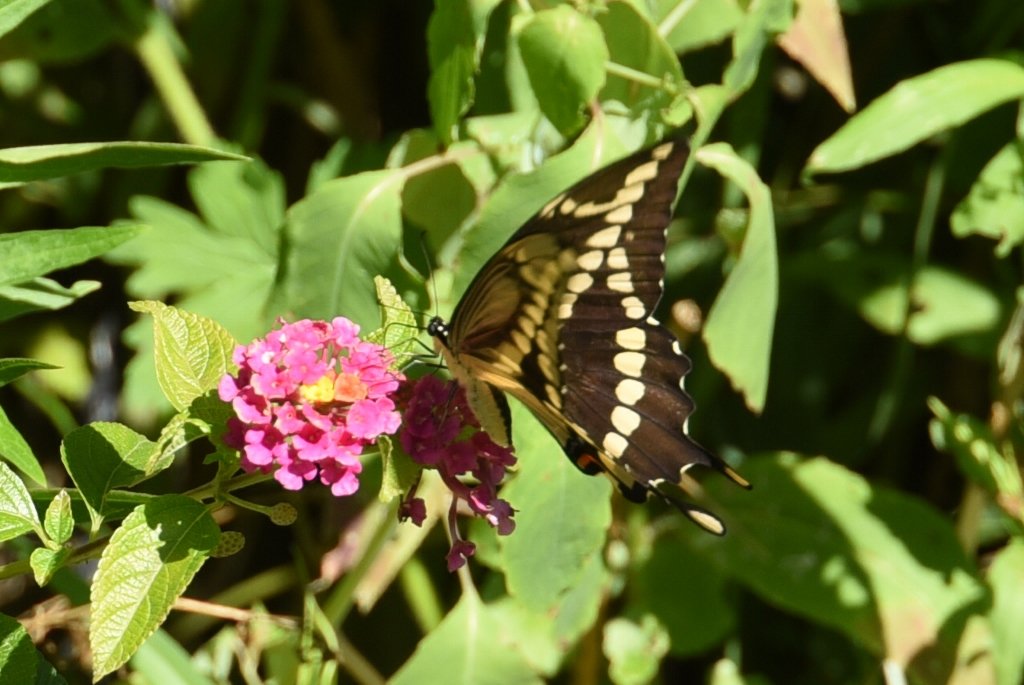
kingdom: Animalia
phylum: Arthropoda
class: Insecta
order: Lepidoptera
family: Papilionidae
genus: Papilio
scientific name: Papilio cresphontes
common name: Eastern Giant Swallowtail
